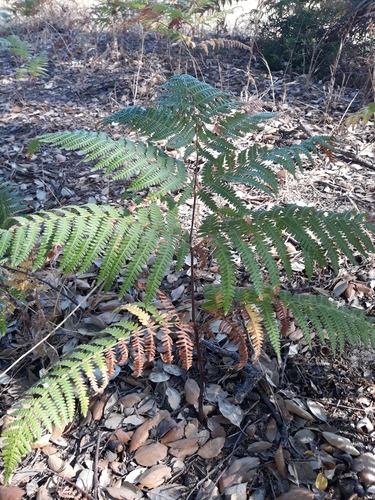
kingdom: Plantae
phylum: Tracheophyta
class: Polypodiopsida
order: Polypodiales
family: Dennstaedtiaceae
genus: Pteridium
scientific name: Pteridium aquilinum
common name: Bracken
